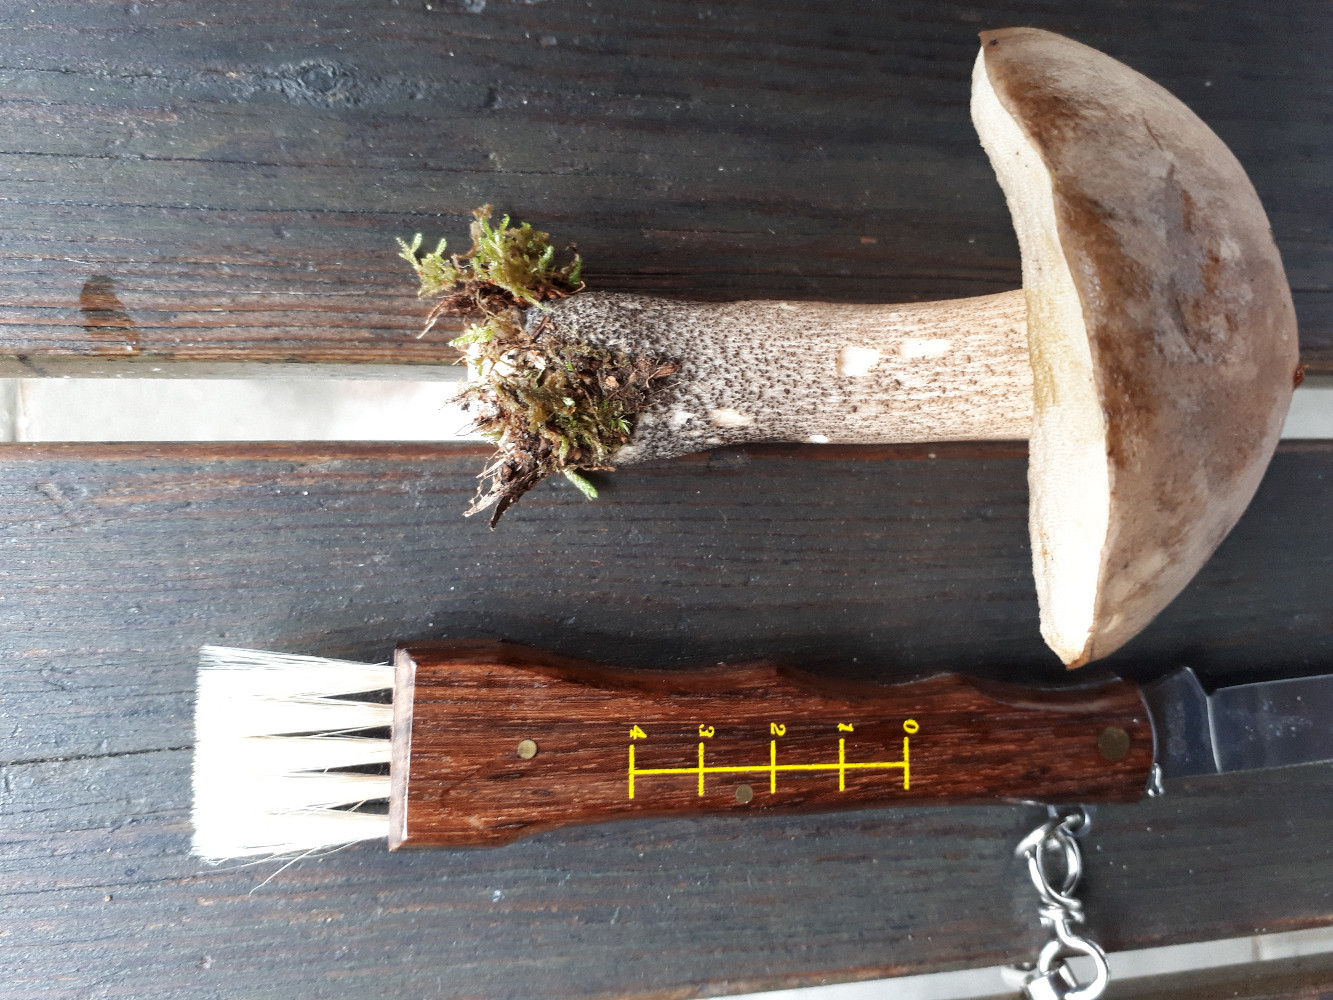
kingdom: Fungi
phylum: Basidiomycota
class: Agaricomycetes
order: Boletales
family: Boletaceae
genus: Leccinum
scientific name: Leccinum scabrum
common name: brun skælrørhat
